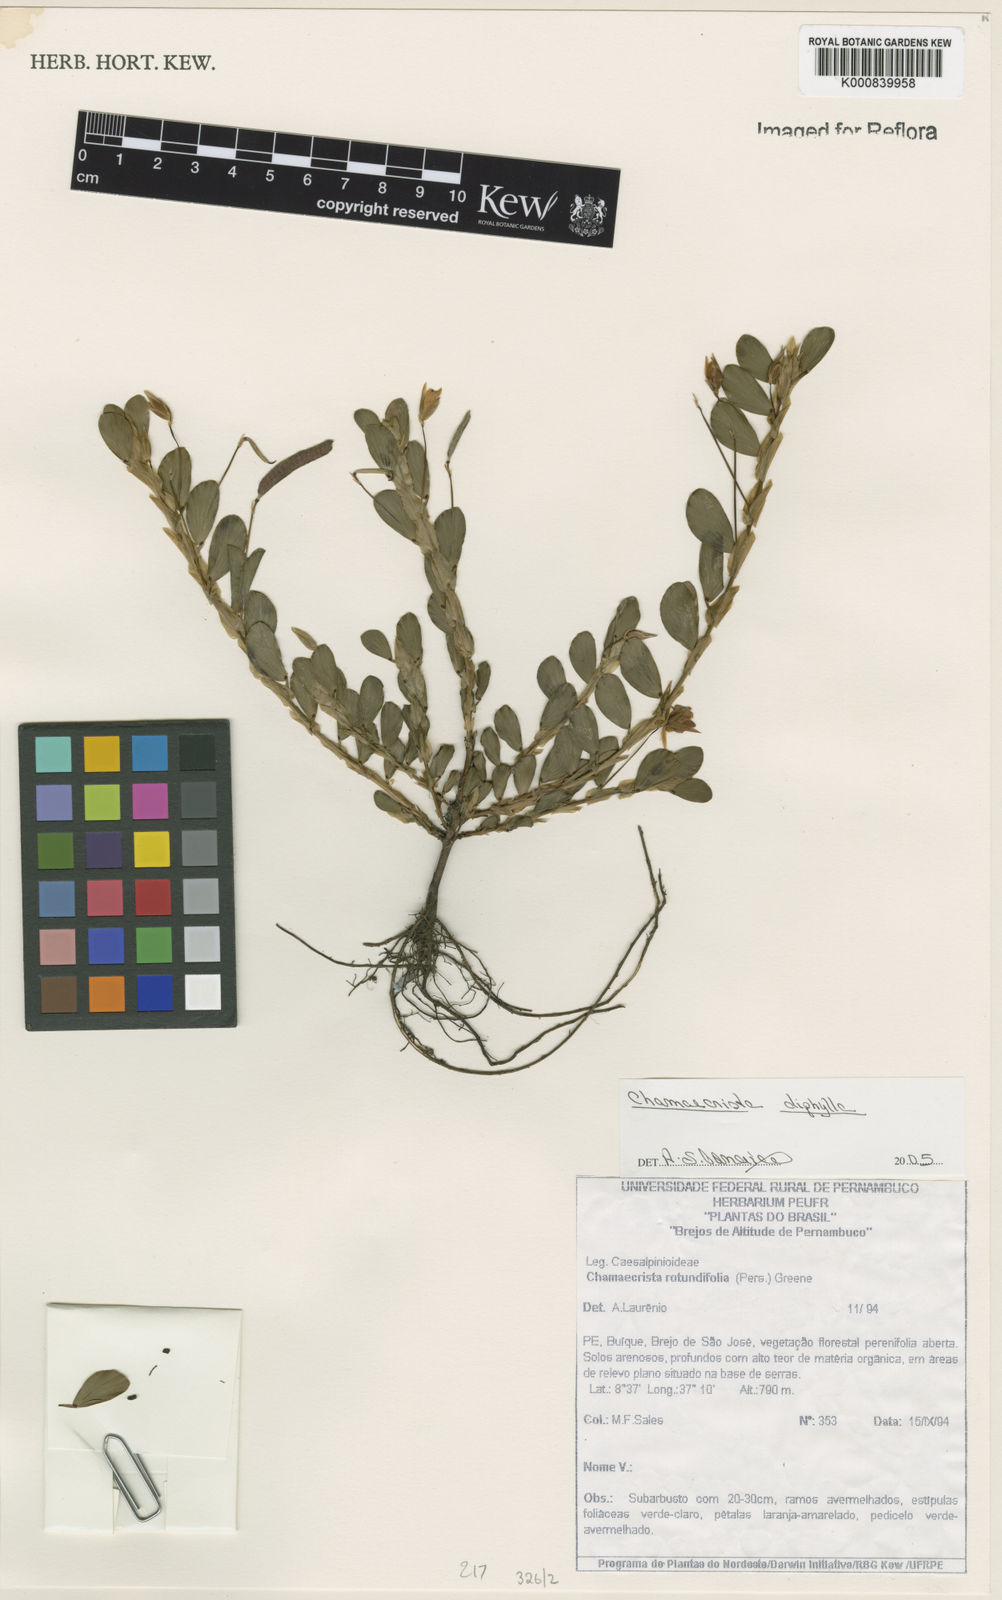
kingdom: Plantae
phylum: Tracheophyta
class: Magnoliopsida
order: Fabales
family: Fabaceae
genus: Chamaecrista
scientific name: Chamaecrista diphylla
